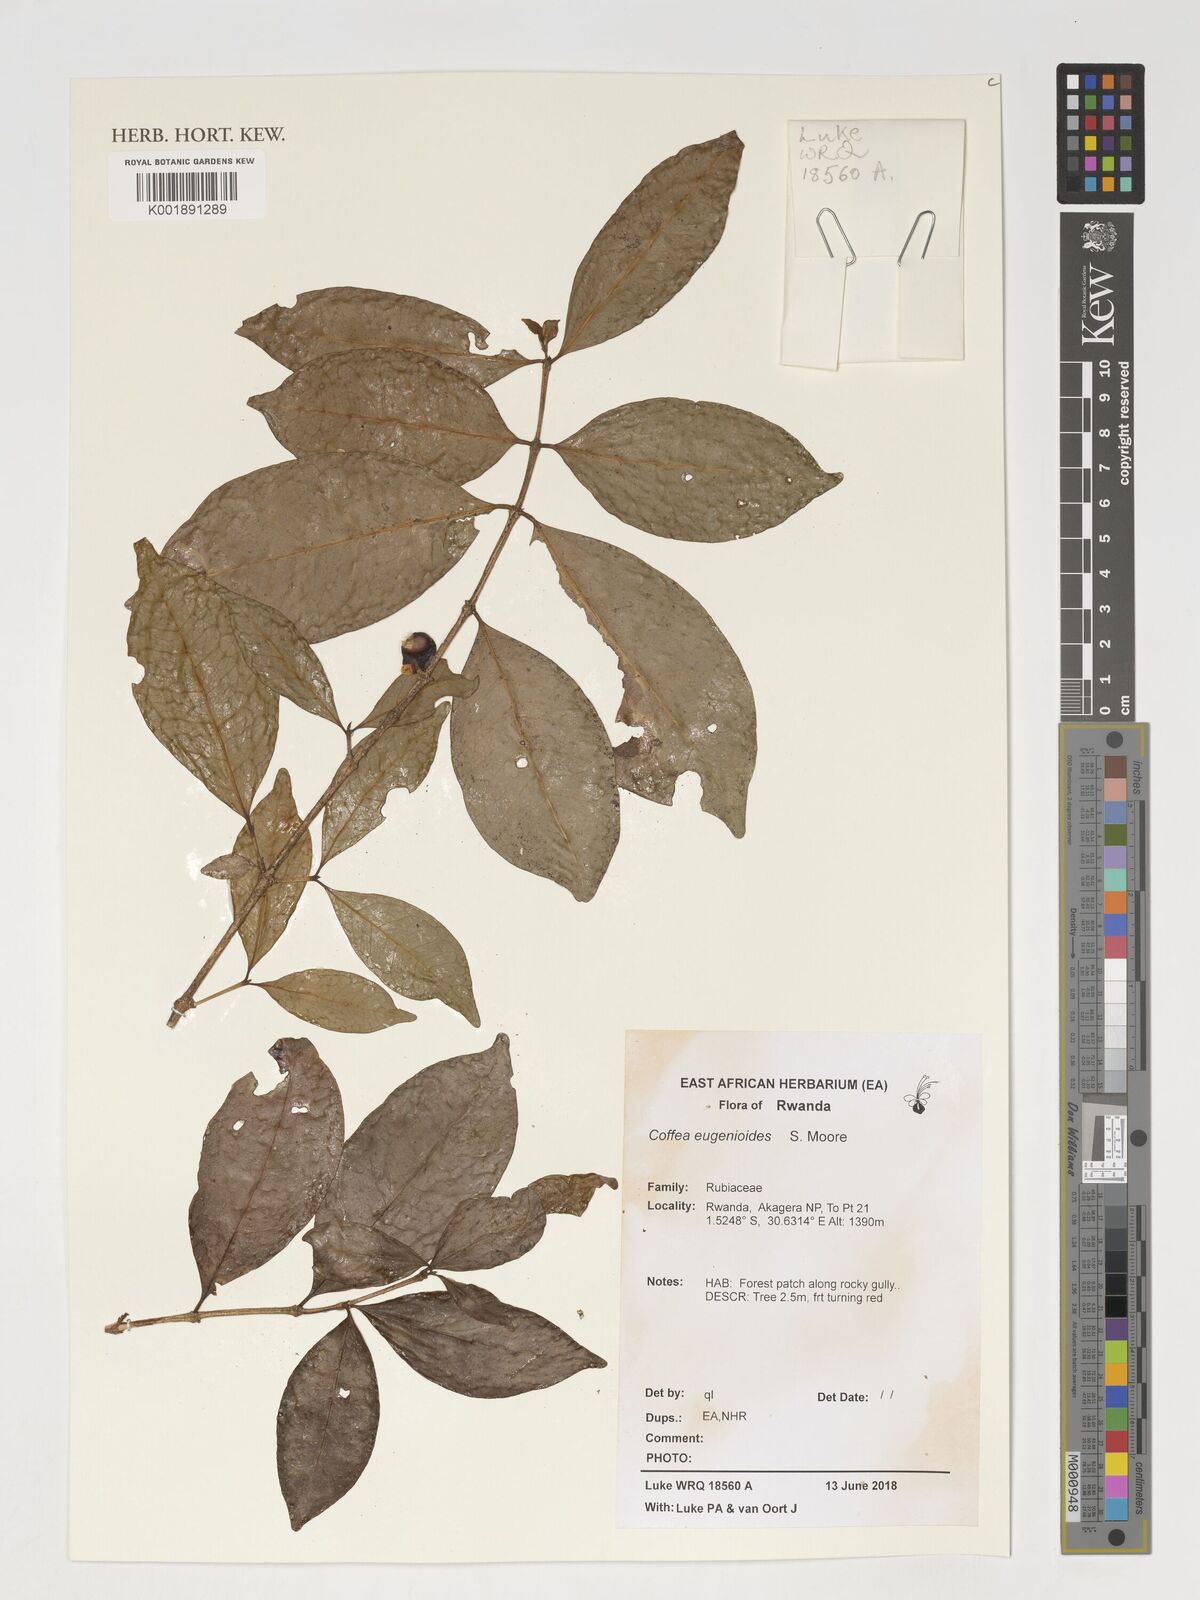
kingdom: Plantae
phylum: Tracheophyta
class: Magnoliopsida
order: Gentianales
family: Rubiaceae
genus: Coffea
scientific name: Coffea eugenioides
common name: Nandi coffee
